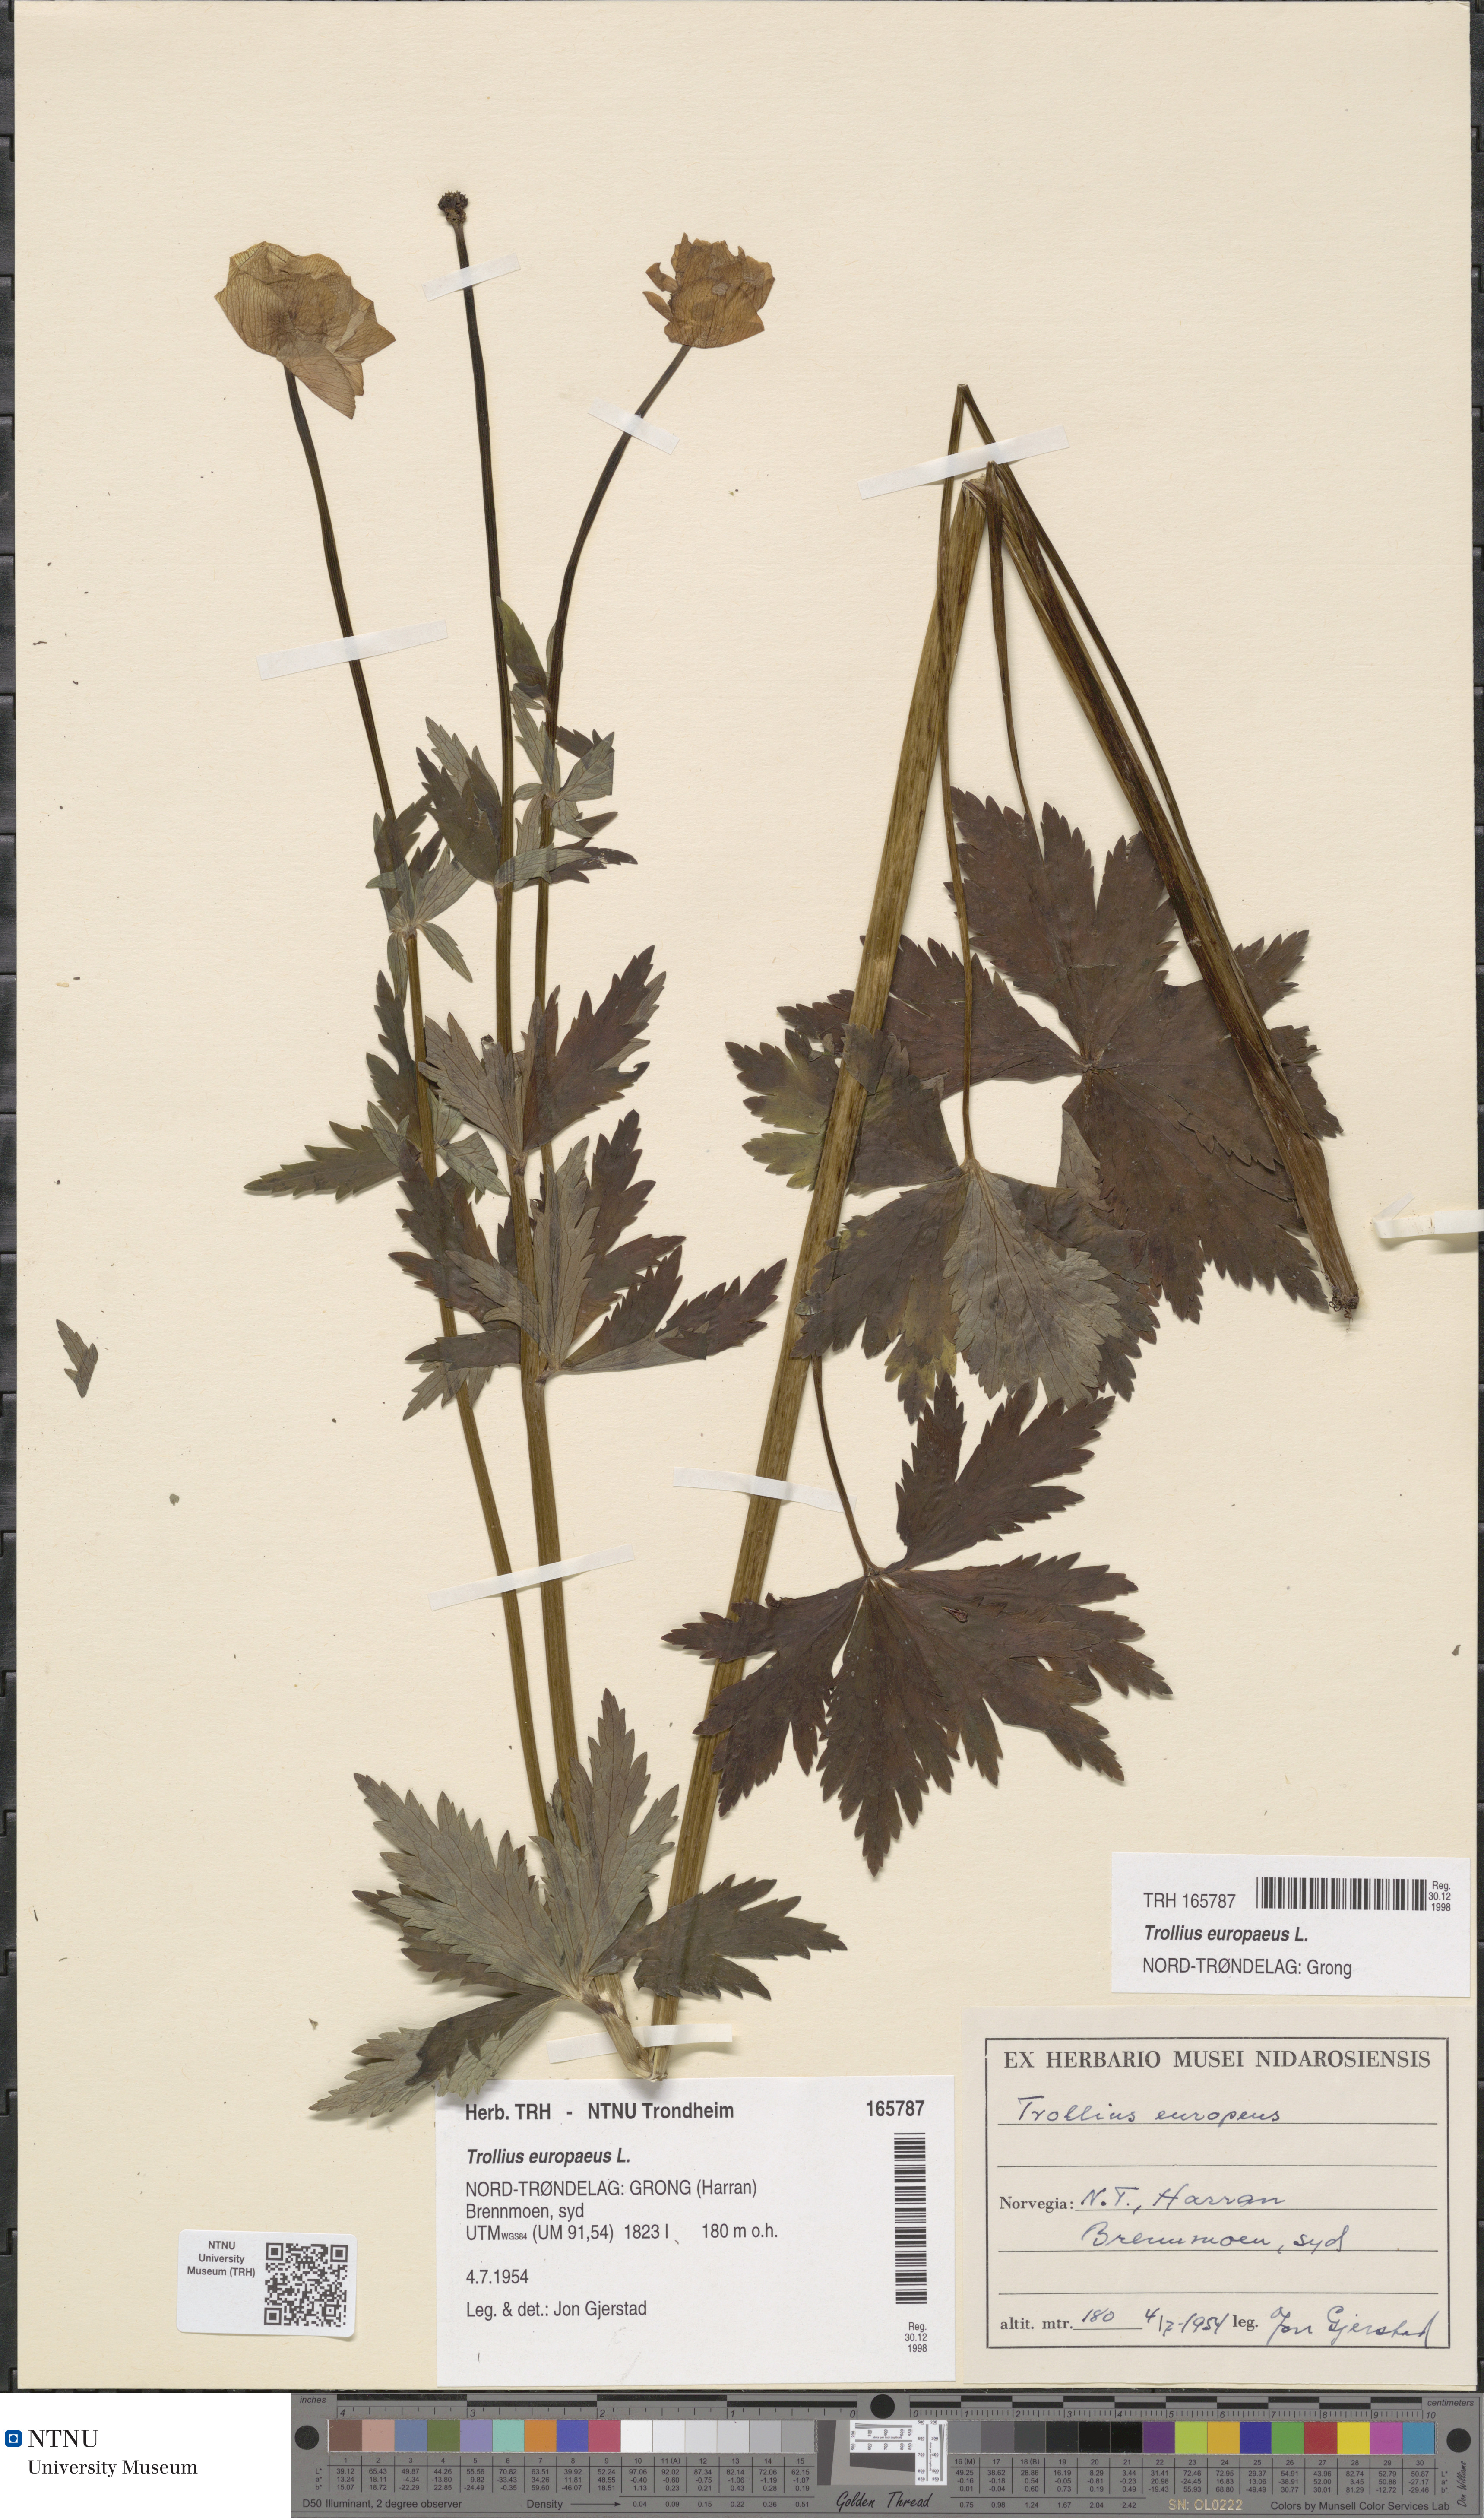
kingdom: Plantae
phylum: Tracheophyta
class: Magnoliopsida
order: Ranunculales
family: Ranunculaceae
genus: Trollius
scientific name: Trollius europaeus
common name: European globeflower
